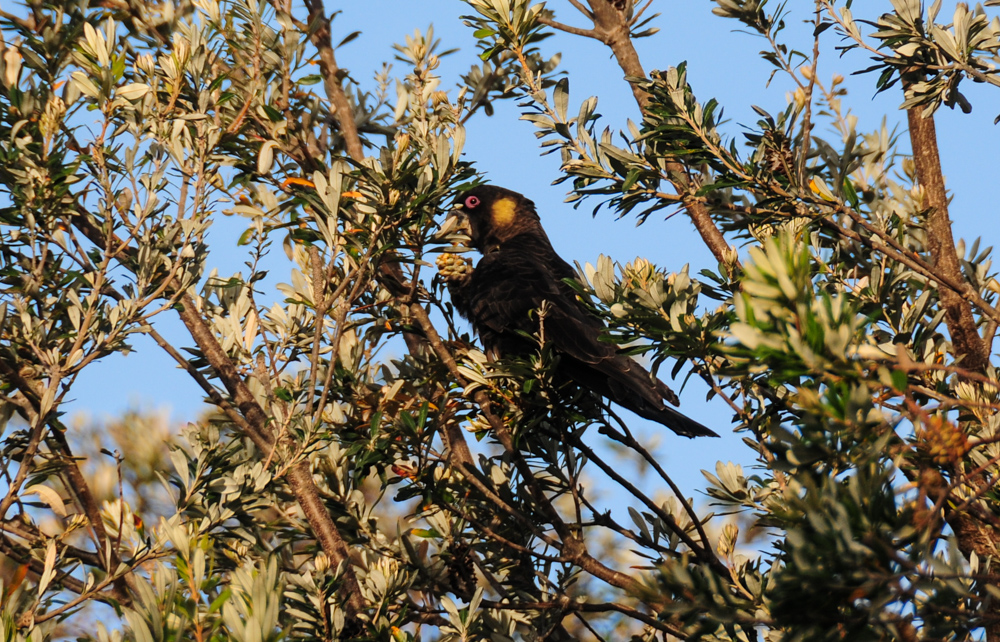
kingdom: Animalia
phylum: Chordata
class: Aves
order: Psittaciformes
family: Psittacidae
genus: Calyptorhynchus
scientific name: Calyptorhynchus funereus
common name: Yellow-tailed black cockatoo
